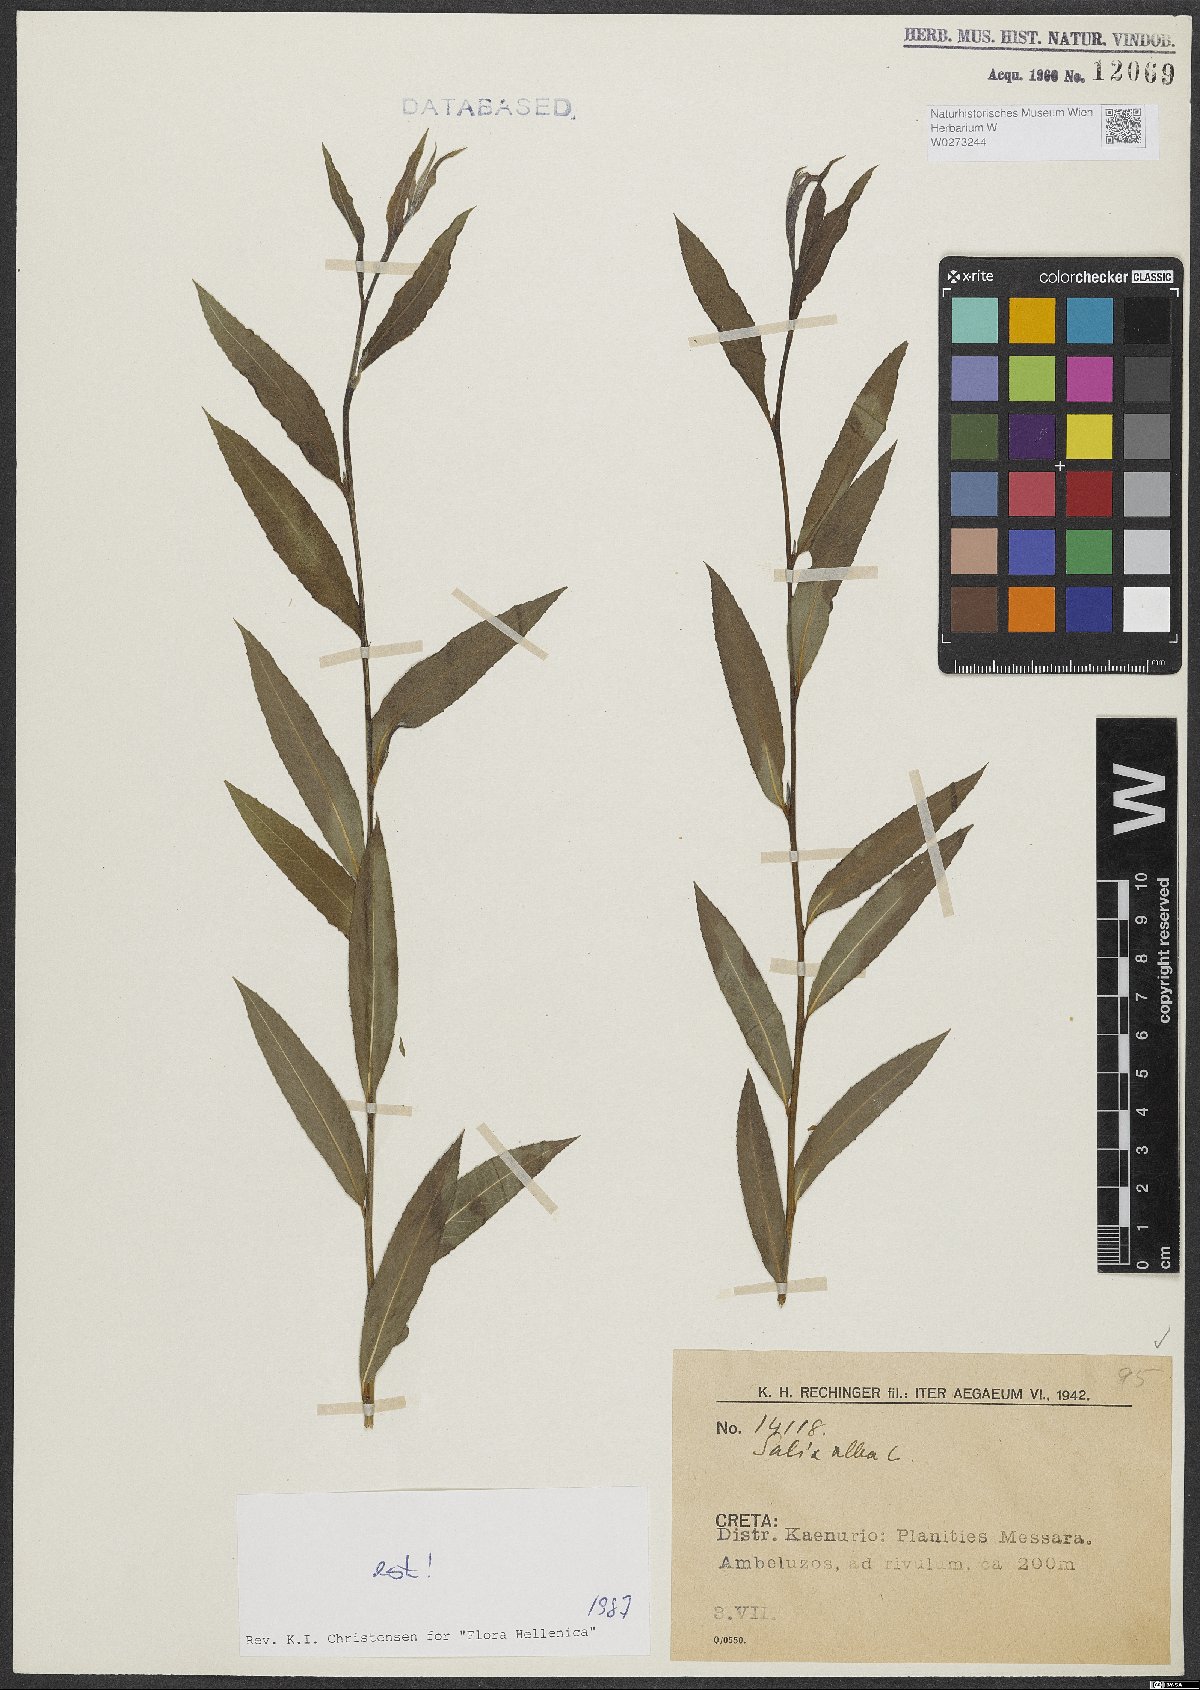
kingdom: Plantae
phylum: Tracheophyta
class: Magnoliopsida
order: Malpighiales
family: Salicaceae
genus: Salix
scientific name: Salix alba
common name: White willow
